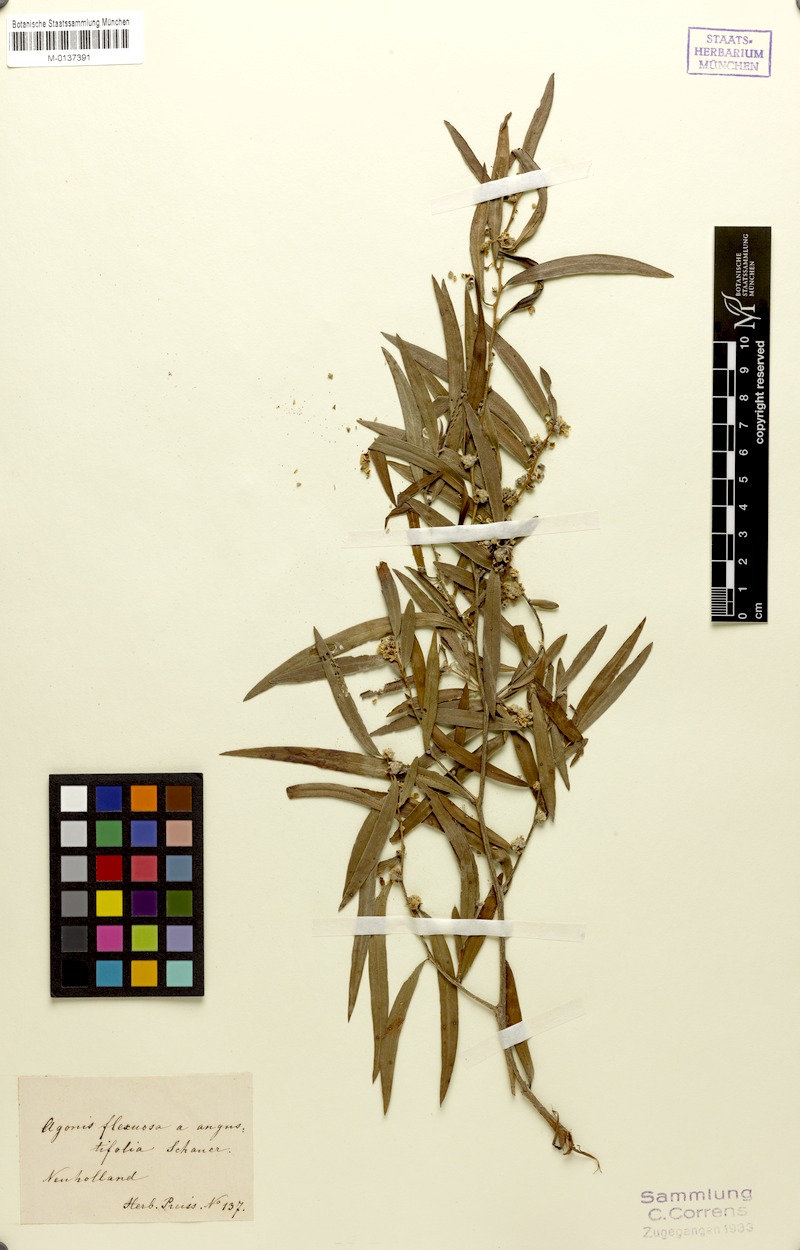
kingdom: Plantae
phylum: Tracheophyta
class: Magnoliopsida
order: Myrtales
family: Myrtaceae
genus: Agonis
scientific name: Agonis flexuosa
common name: Willow myrtle
